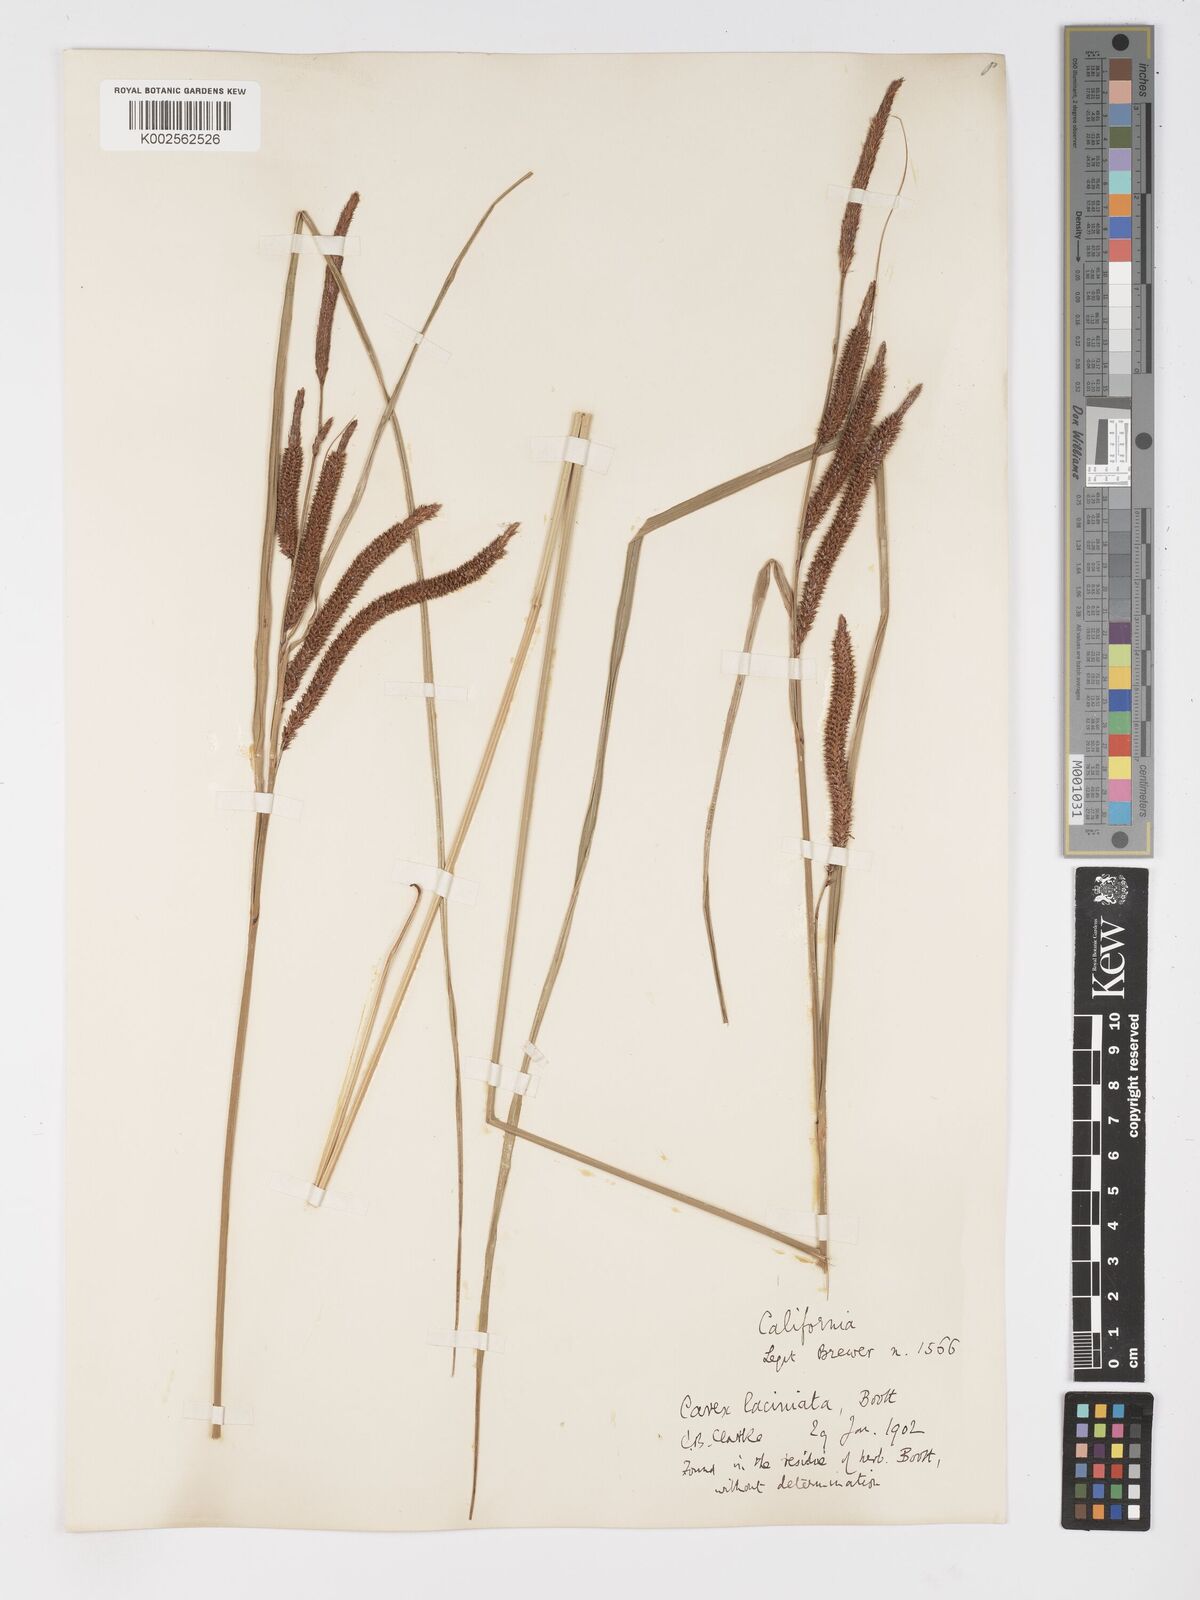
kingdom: Plantae
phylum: Tracheophyta
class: Liliopsida
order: Poales
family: Cyperaceae
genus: Carex
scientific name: Carex barbarae
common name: Santa barbara sedge
